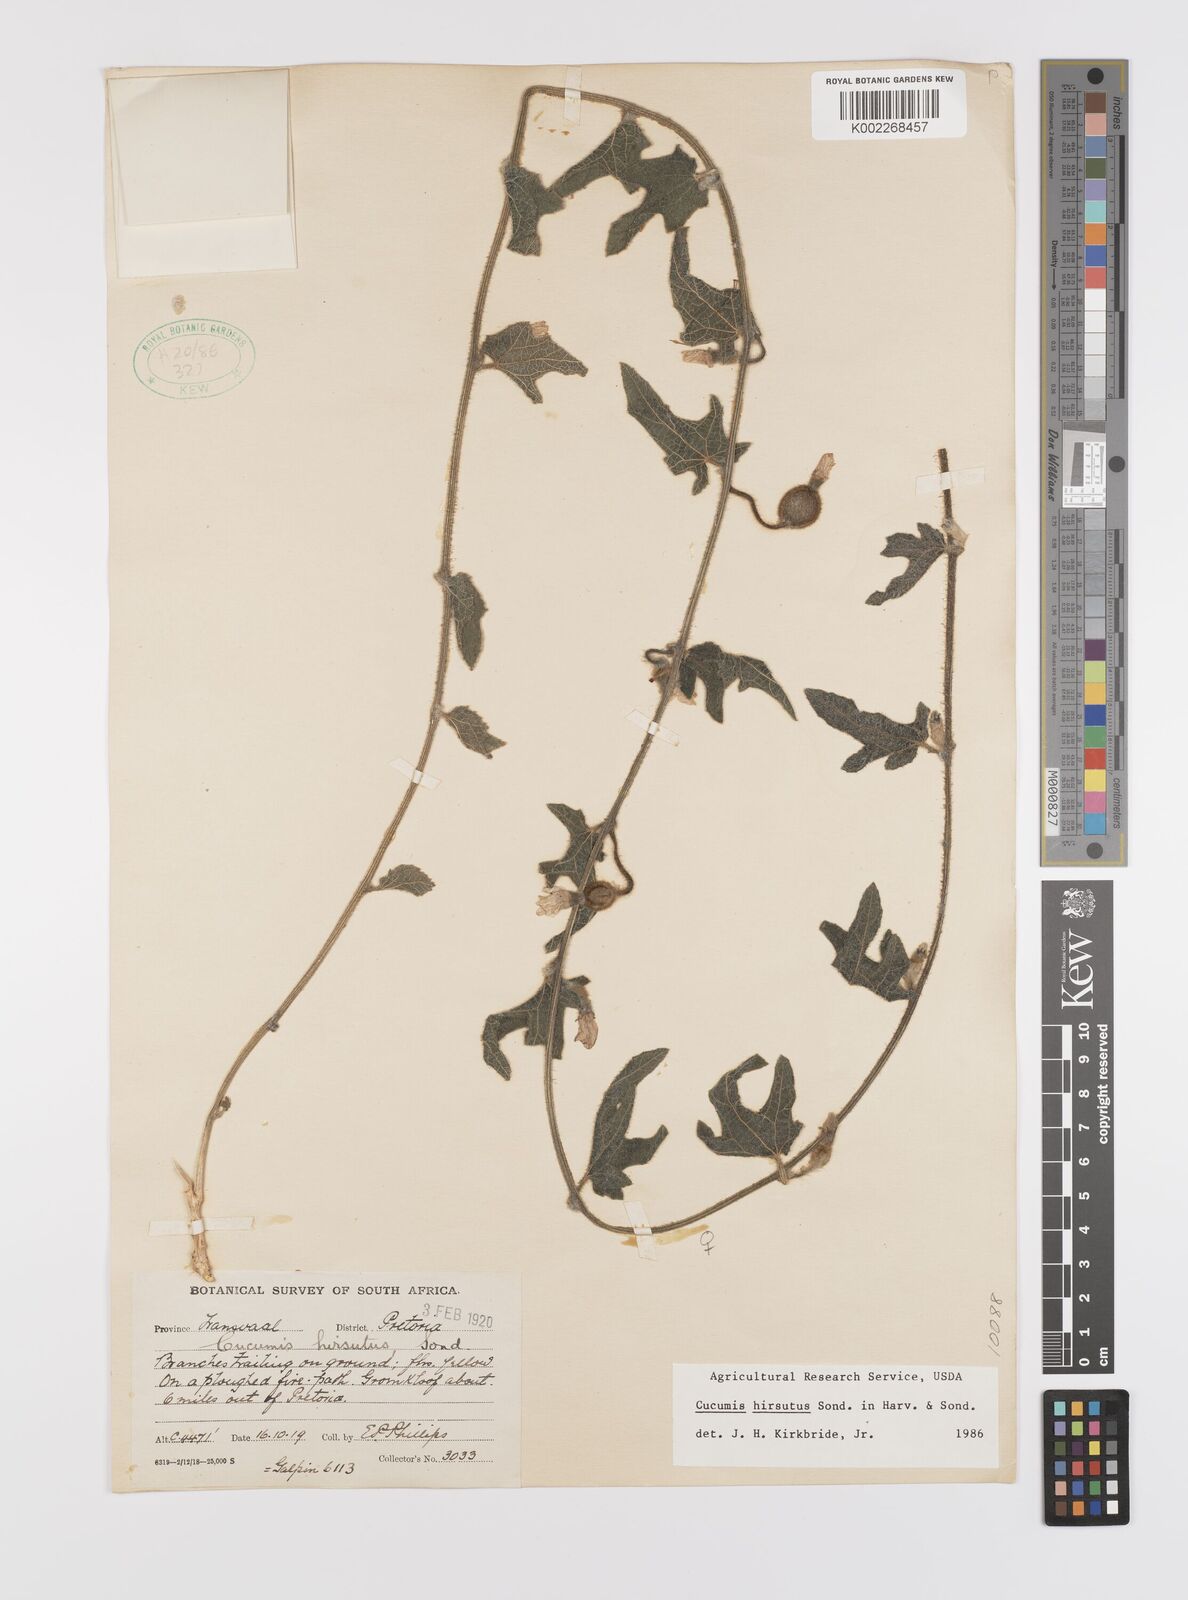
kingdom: Plantae
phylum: Tracheophyta
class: Magnoliopsida
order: Cucurbitales
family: Cucurbitaceae
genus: Cucumis
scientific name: Cucumis hirsutus
